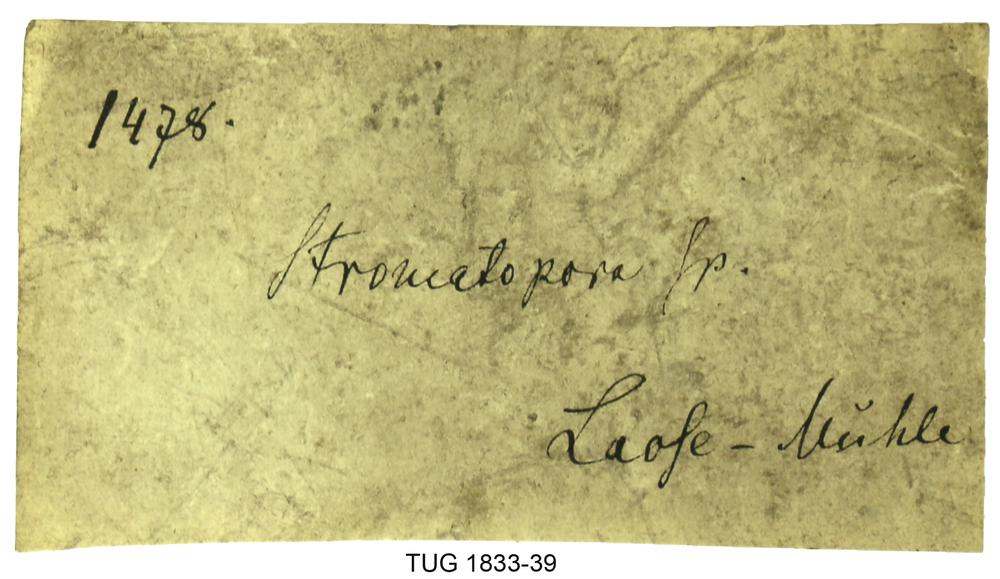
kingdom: Animalia
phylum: Porifera
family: Stromatoporidae
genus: Stromatopora
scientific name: Stromatopora
